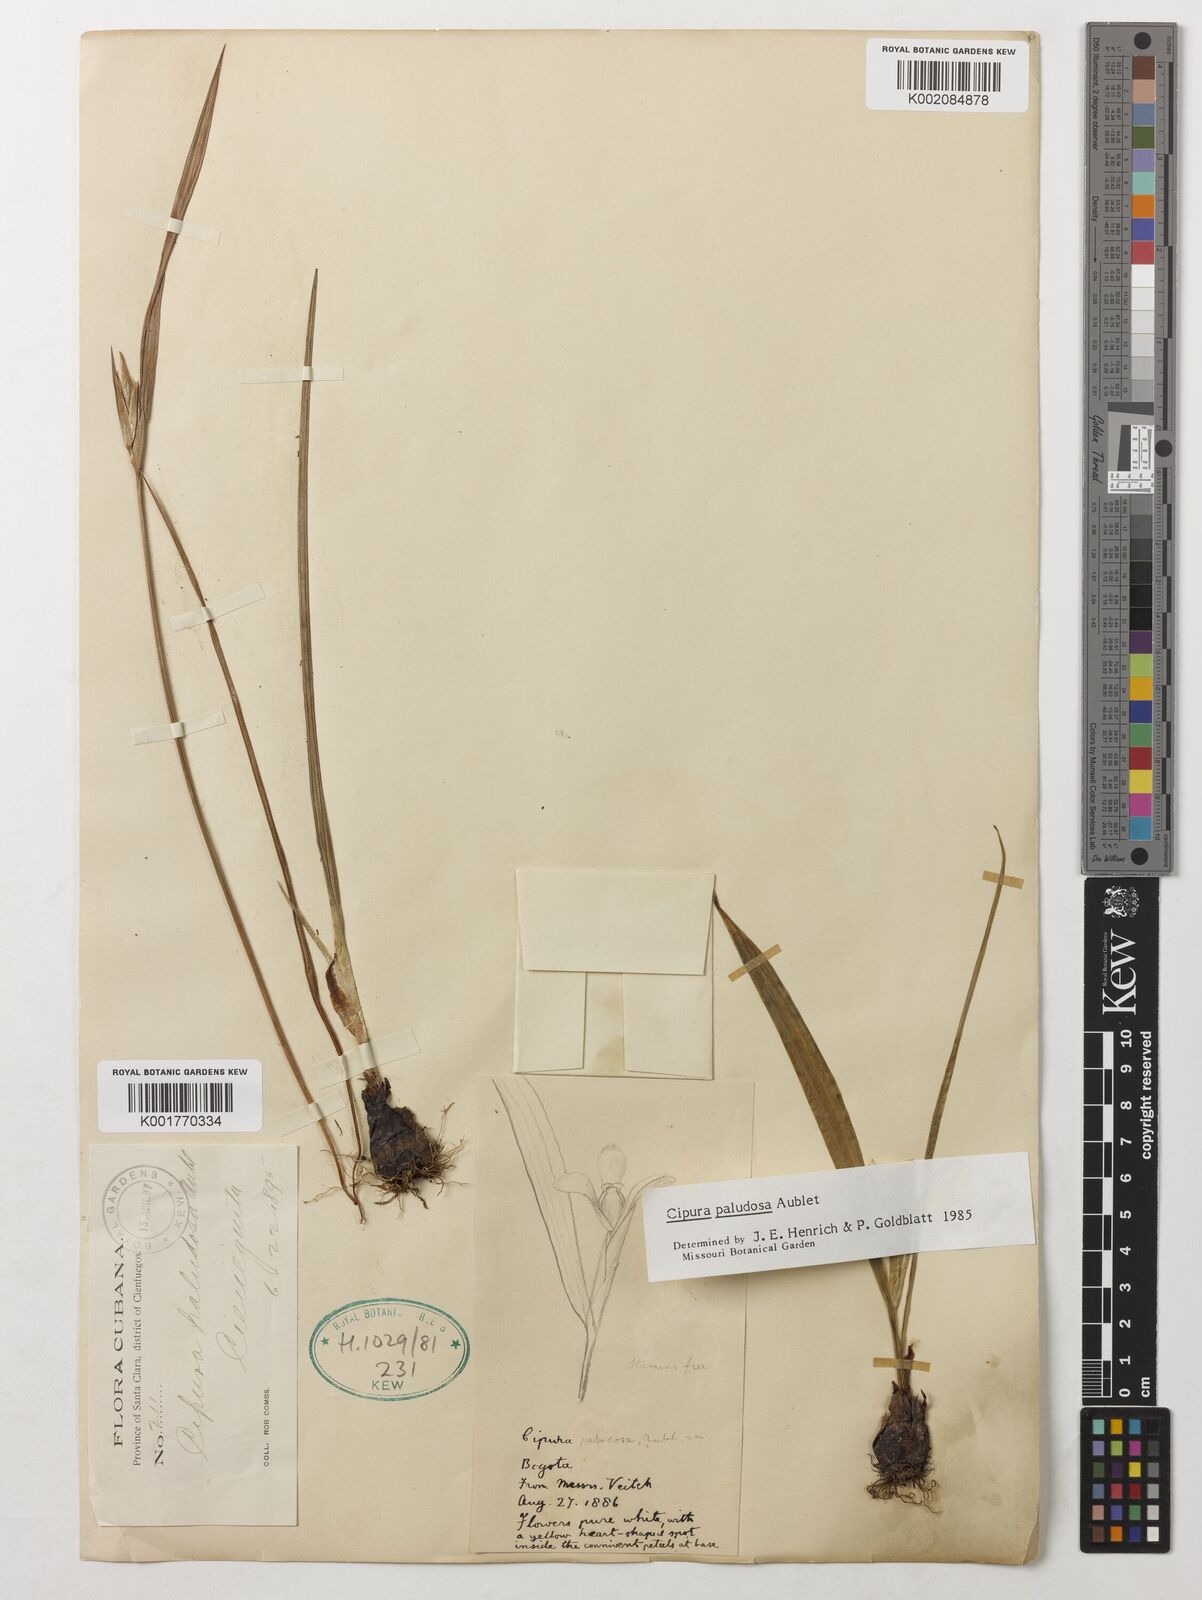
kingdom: Plantae
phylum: Tracheophyta
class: Liliopsida
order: Asparagales
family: Iridaceae
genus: Cipura
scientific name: Cipura paludosa
